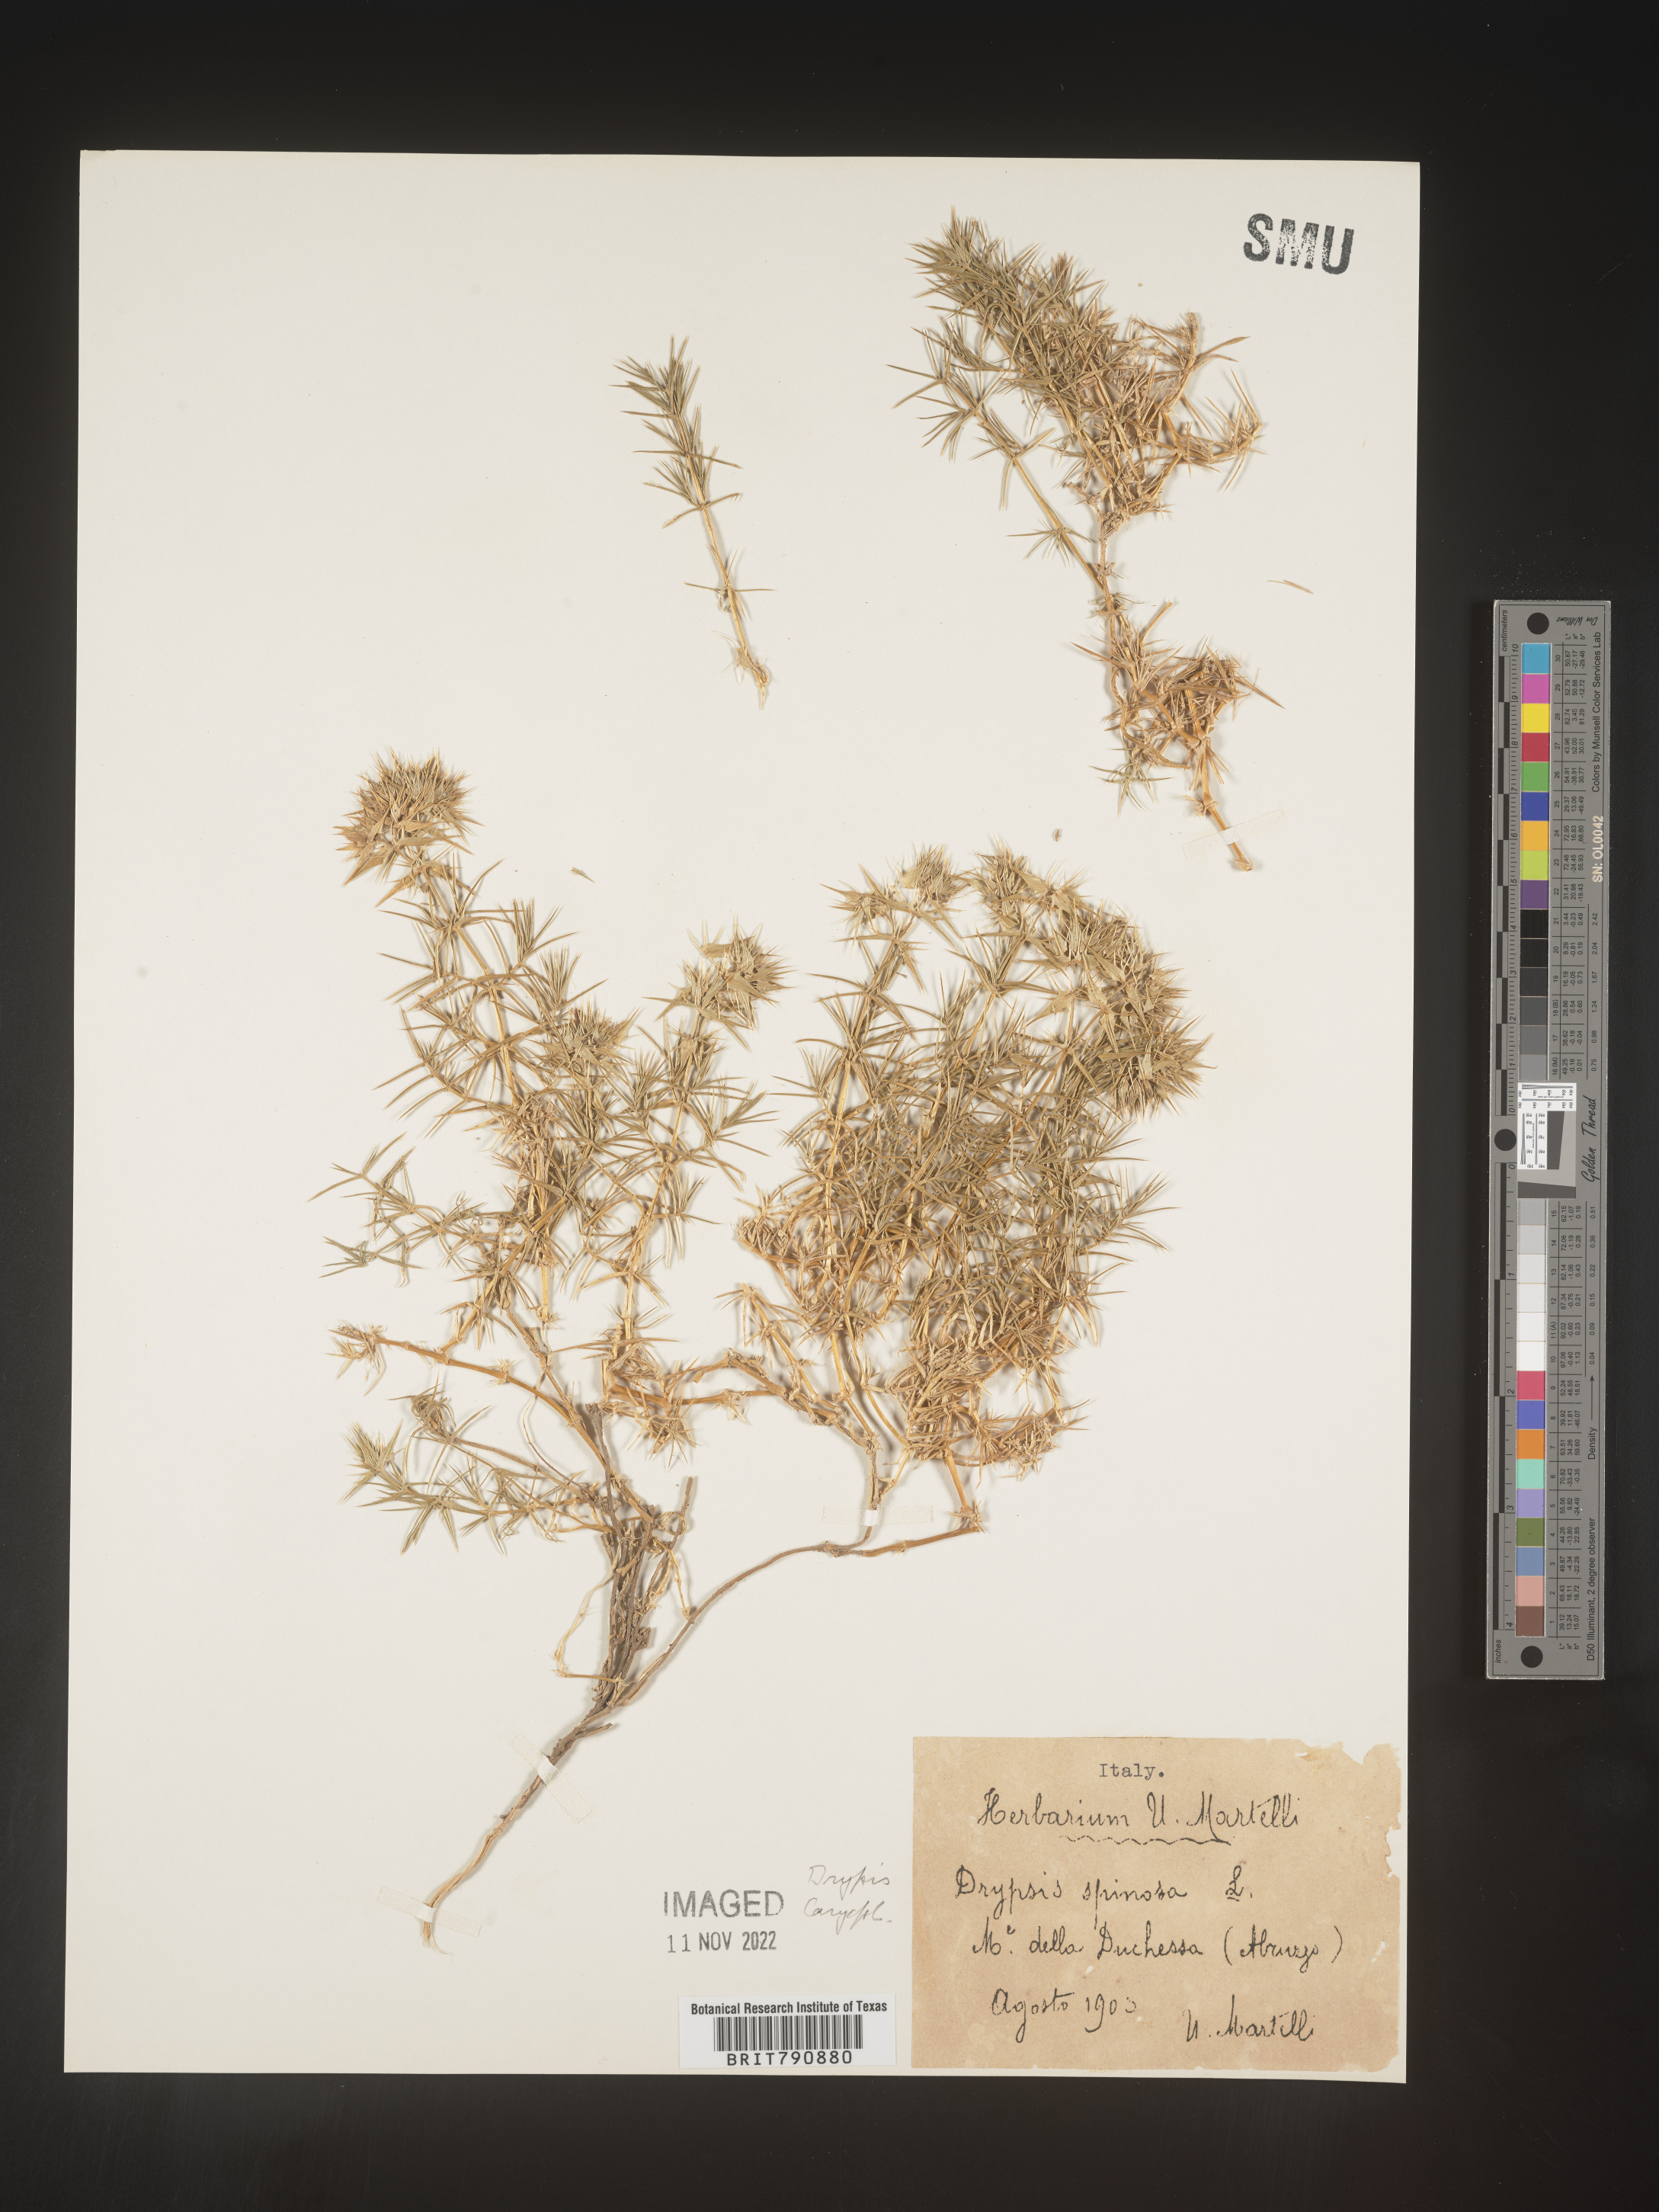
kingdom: Plantae
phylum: Tracheophyta
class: Magnoliopsida
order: Caryophyllales
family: Caryophyllaceae
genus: Drypis
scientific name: Drypis
